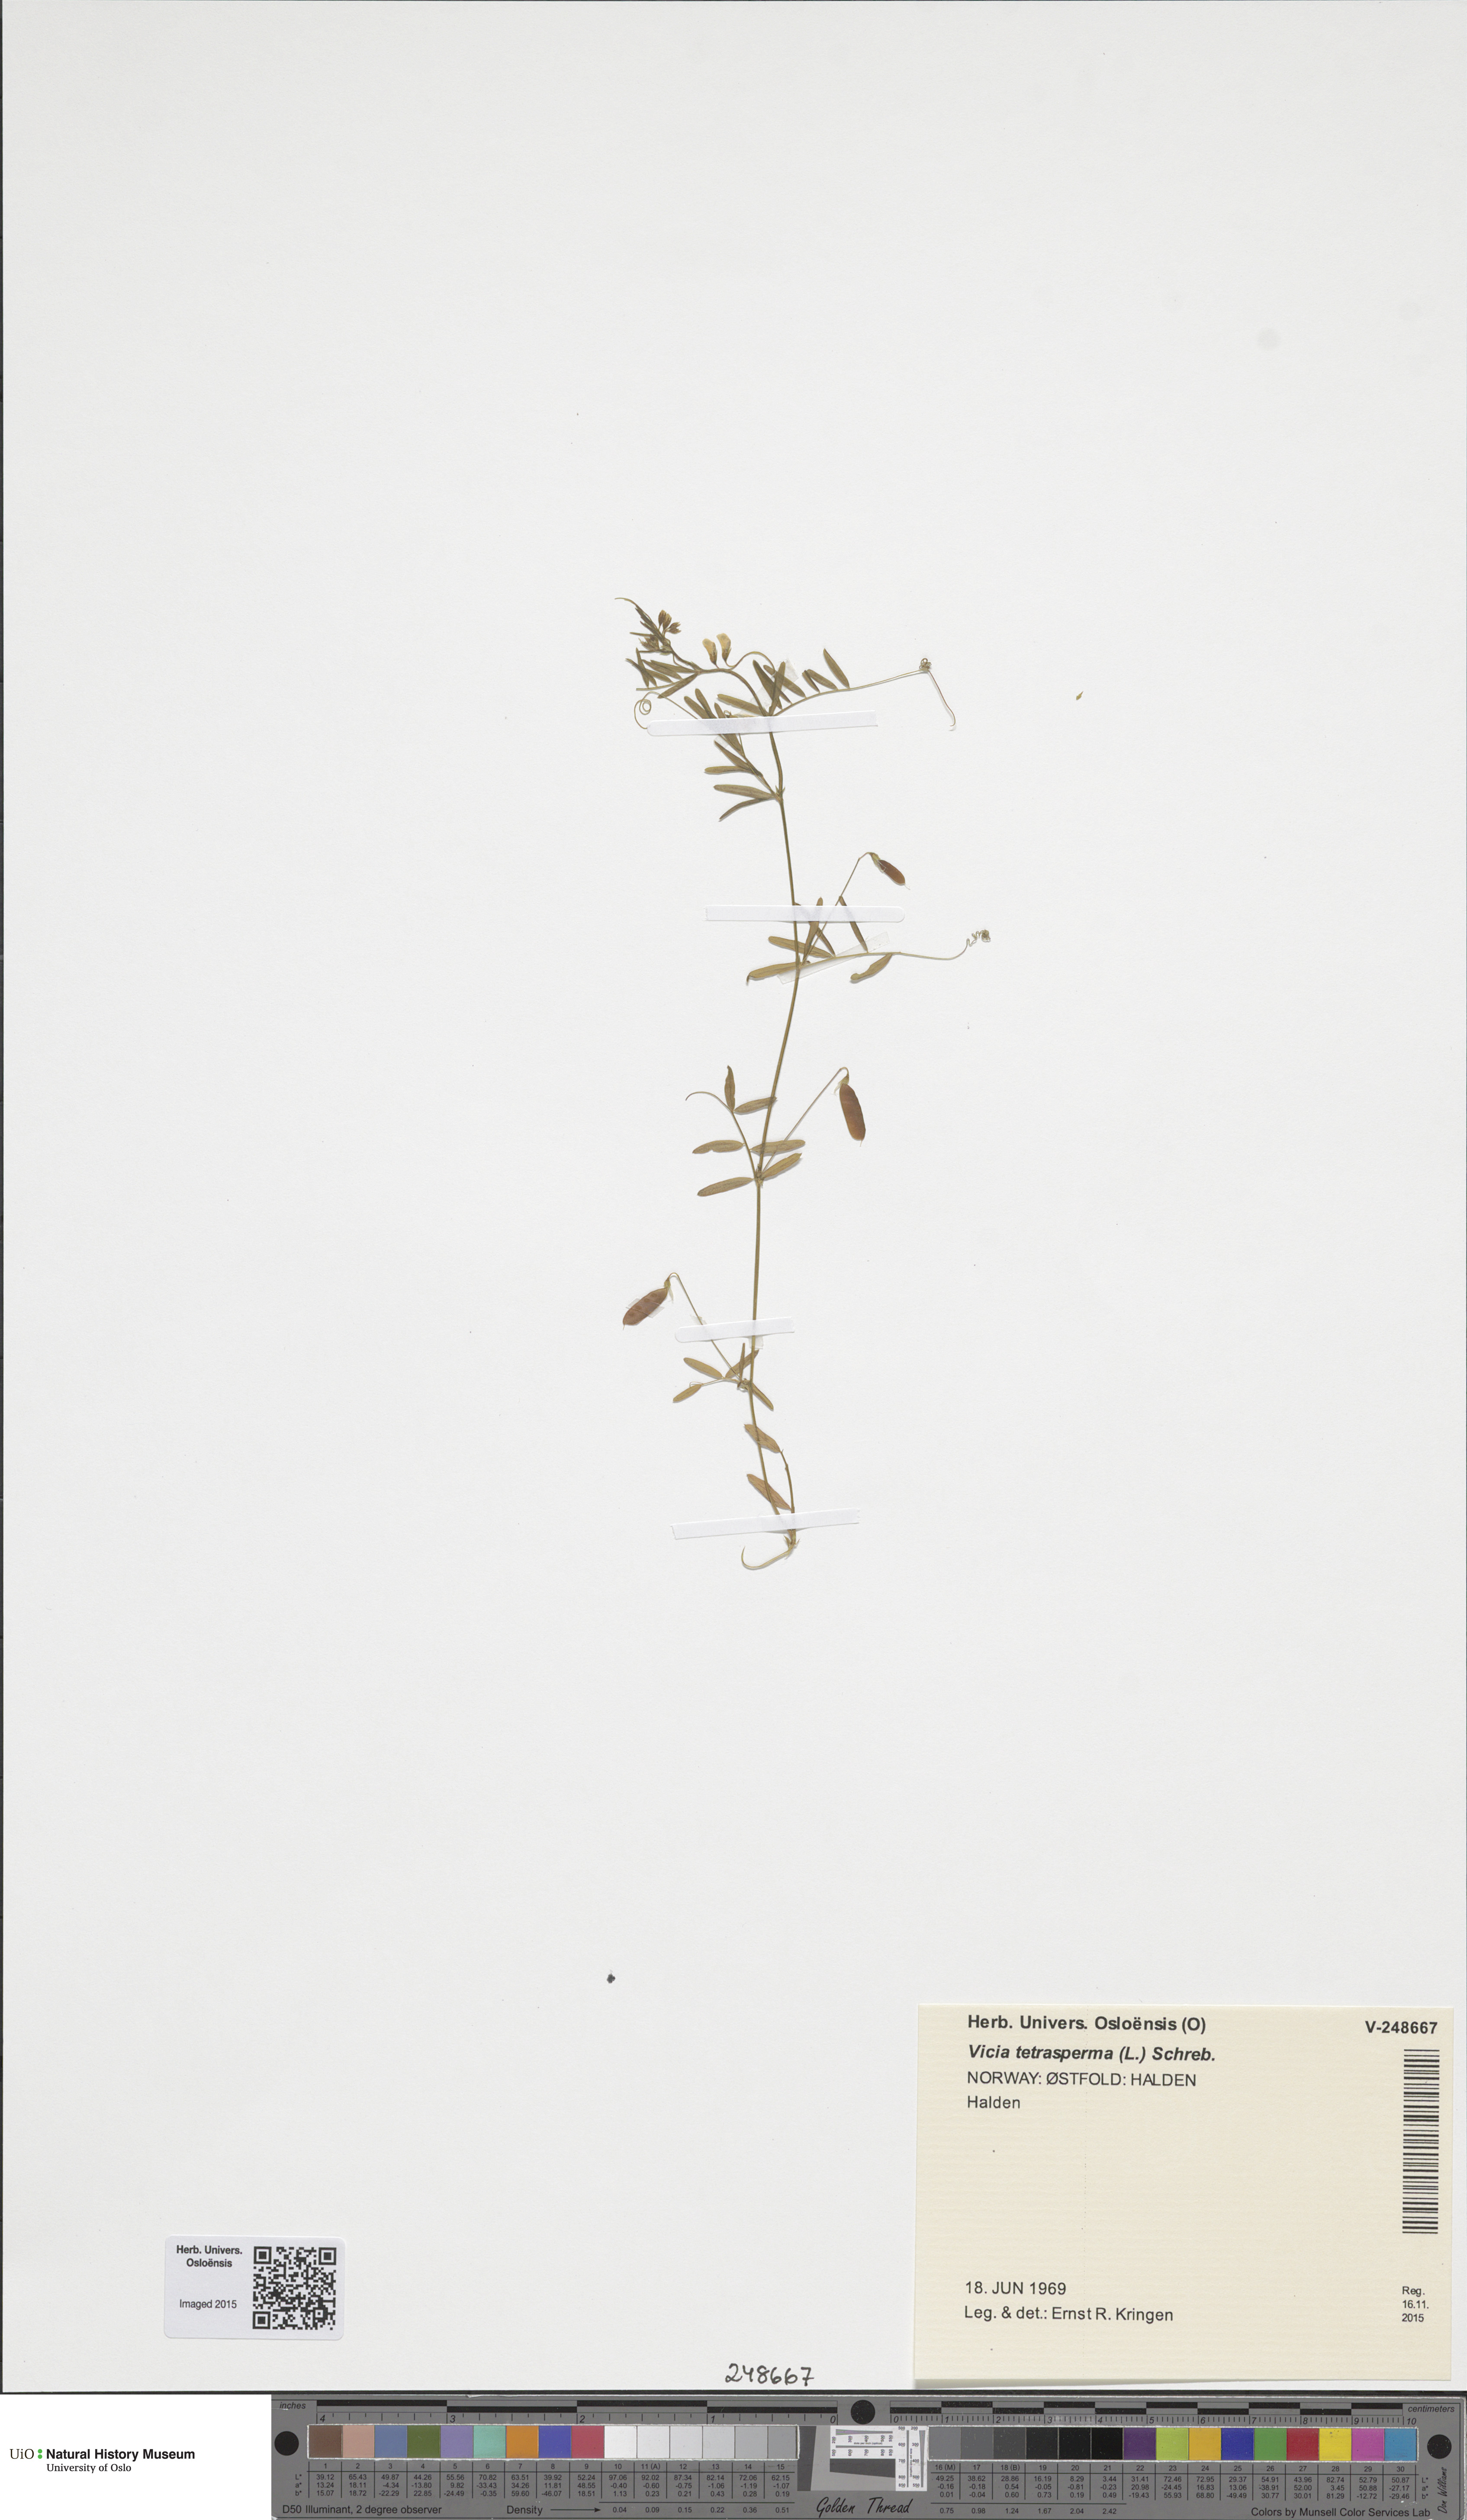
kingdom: Plantae
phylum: Tracheophyta
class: Magnoliopsida
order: Fabales
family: Fabaceae
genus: Vicia
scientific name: Vicia tetrasperma
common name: Smooth tare
